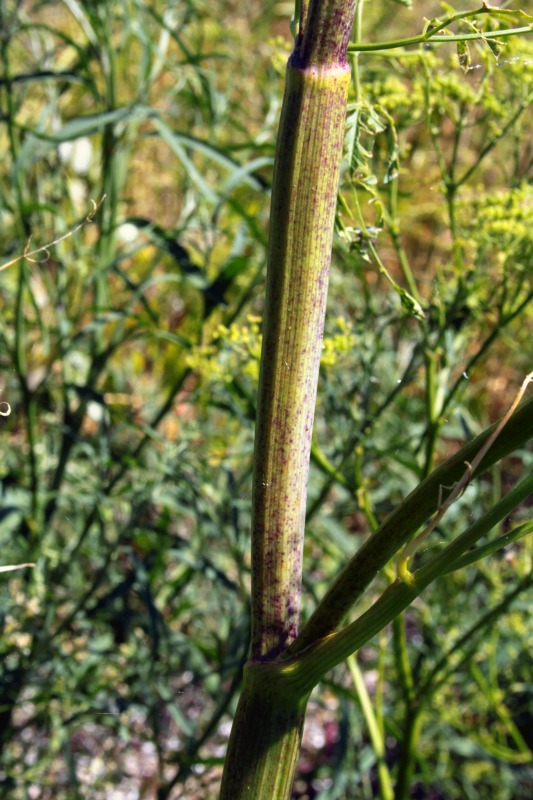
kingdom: Plantae
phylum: Tracheophyta
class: Magnoliopsida
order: Apiales
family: Apiaceae
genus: Conium
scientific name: Conium maculatum
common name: Skarntyde
